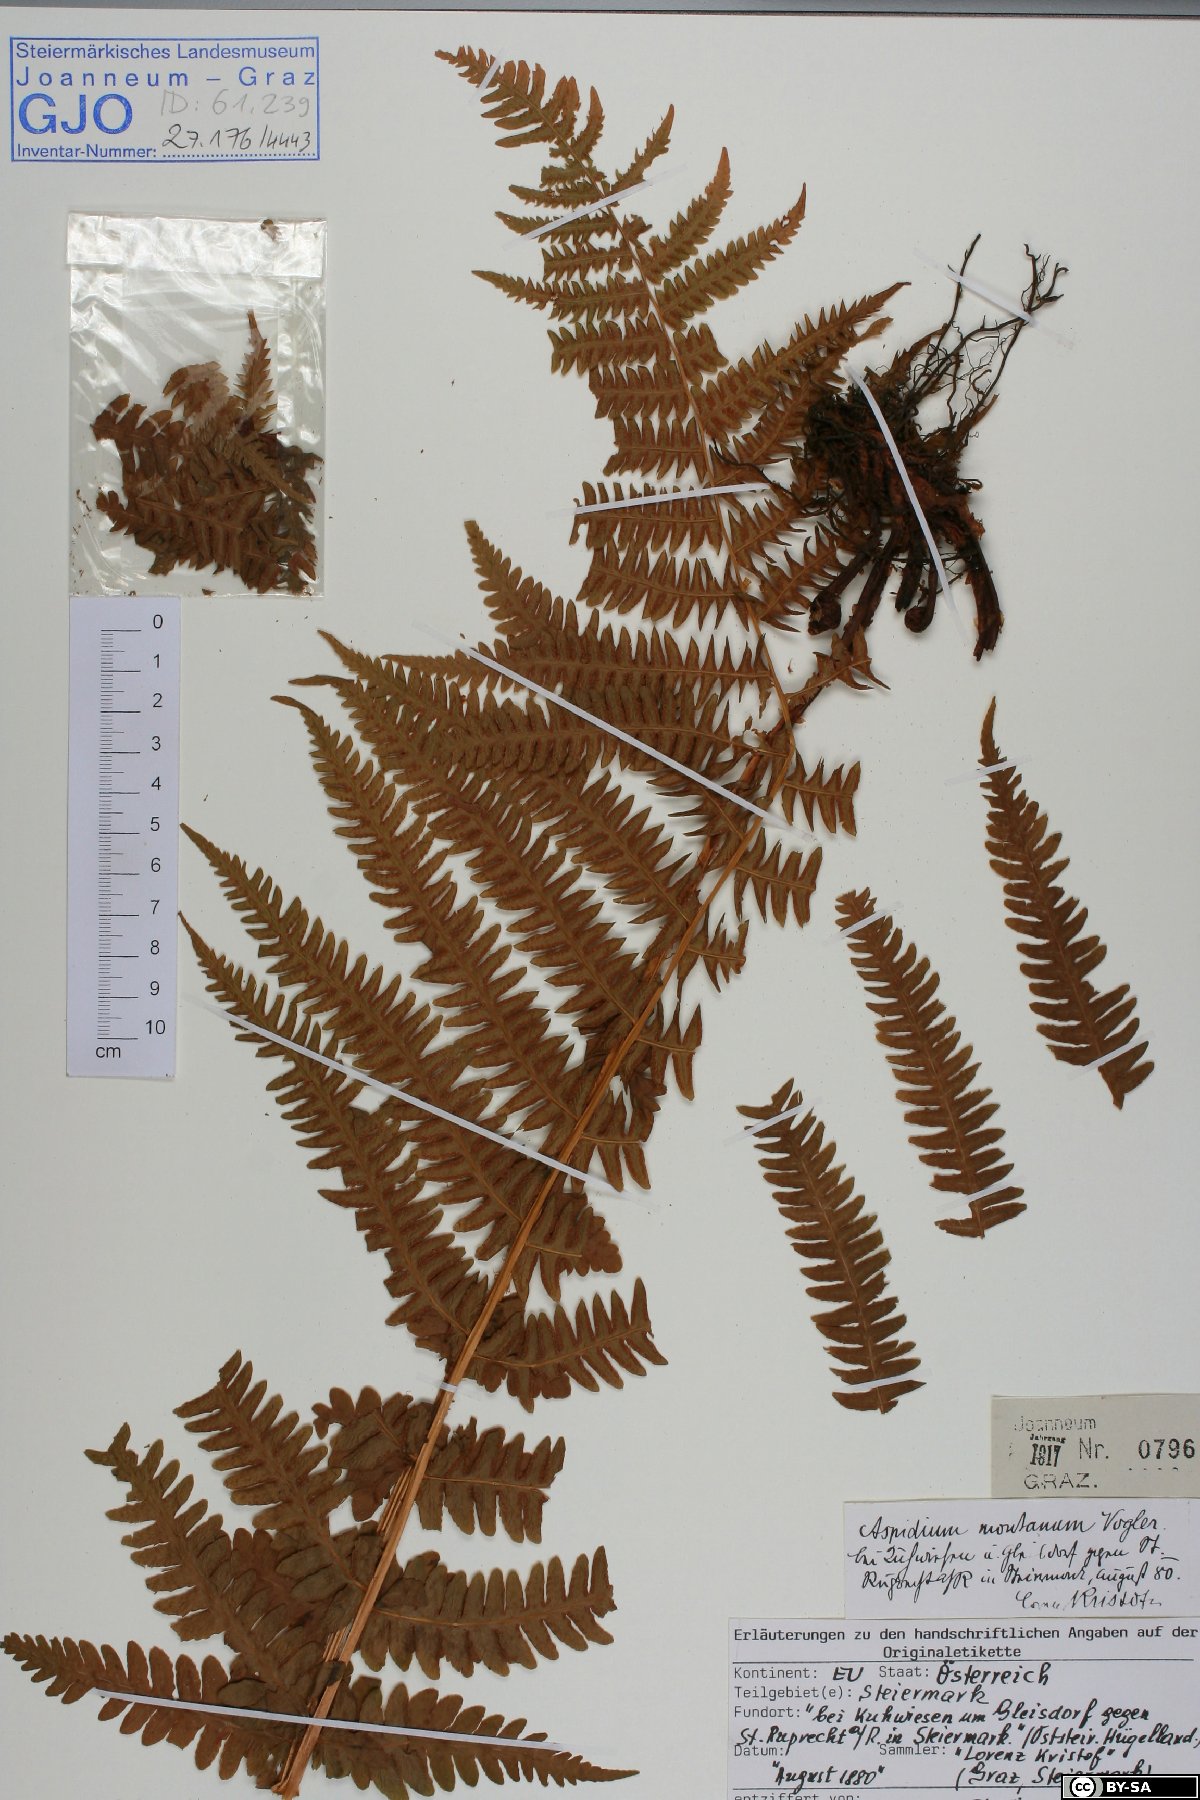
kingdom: Plantae
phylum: Tracheophyta
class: Polypodiopsida
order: Polypodiales
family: Thelypteridaceae
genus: Oreopteris
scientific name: Oreopteris limbosperma
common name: Lemon-scented fern
